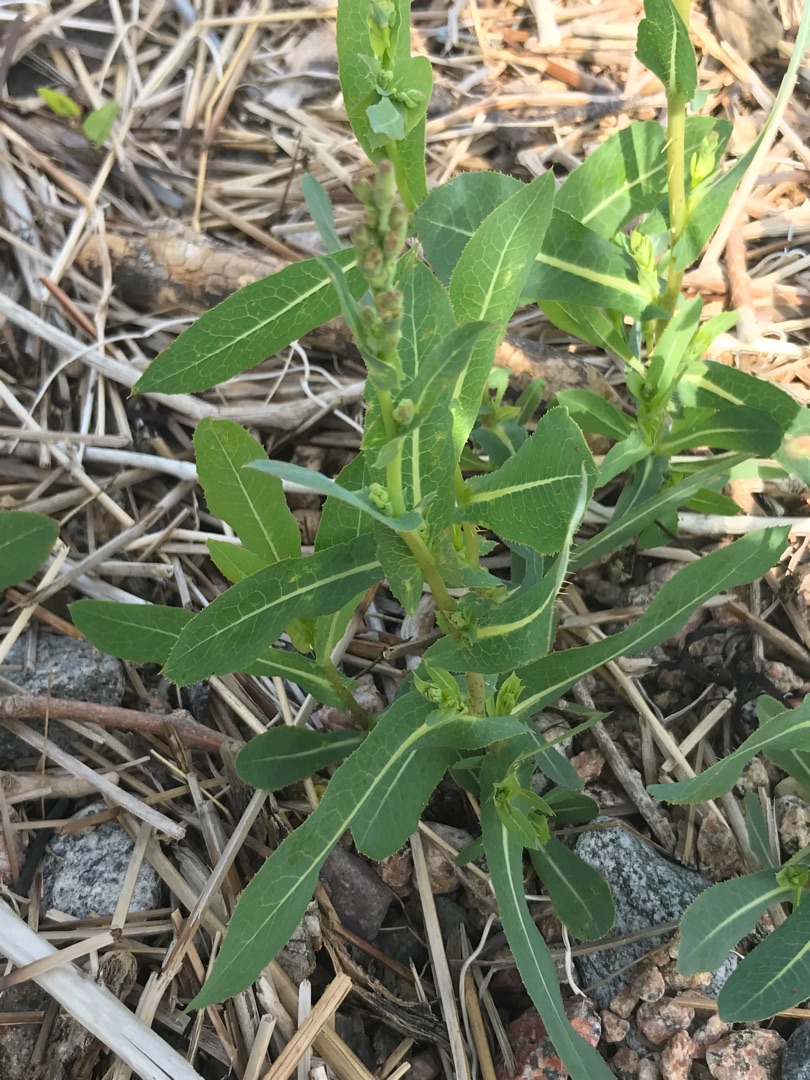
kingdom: Plantae
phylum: Tracheophyta
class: Magnoliopsida
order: Asterales
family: Asteraceae
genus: Lactuca
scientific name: Lactuca serriola
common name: Tornet salat
